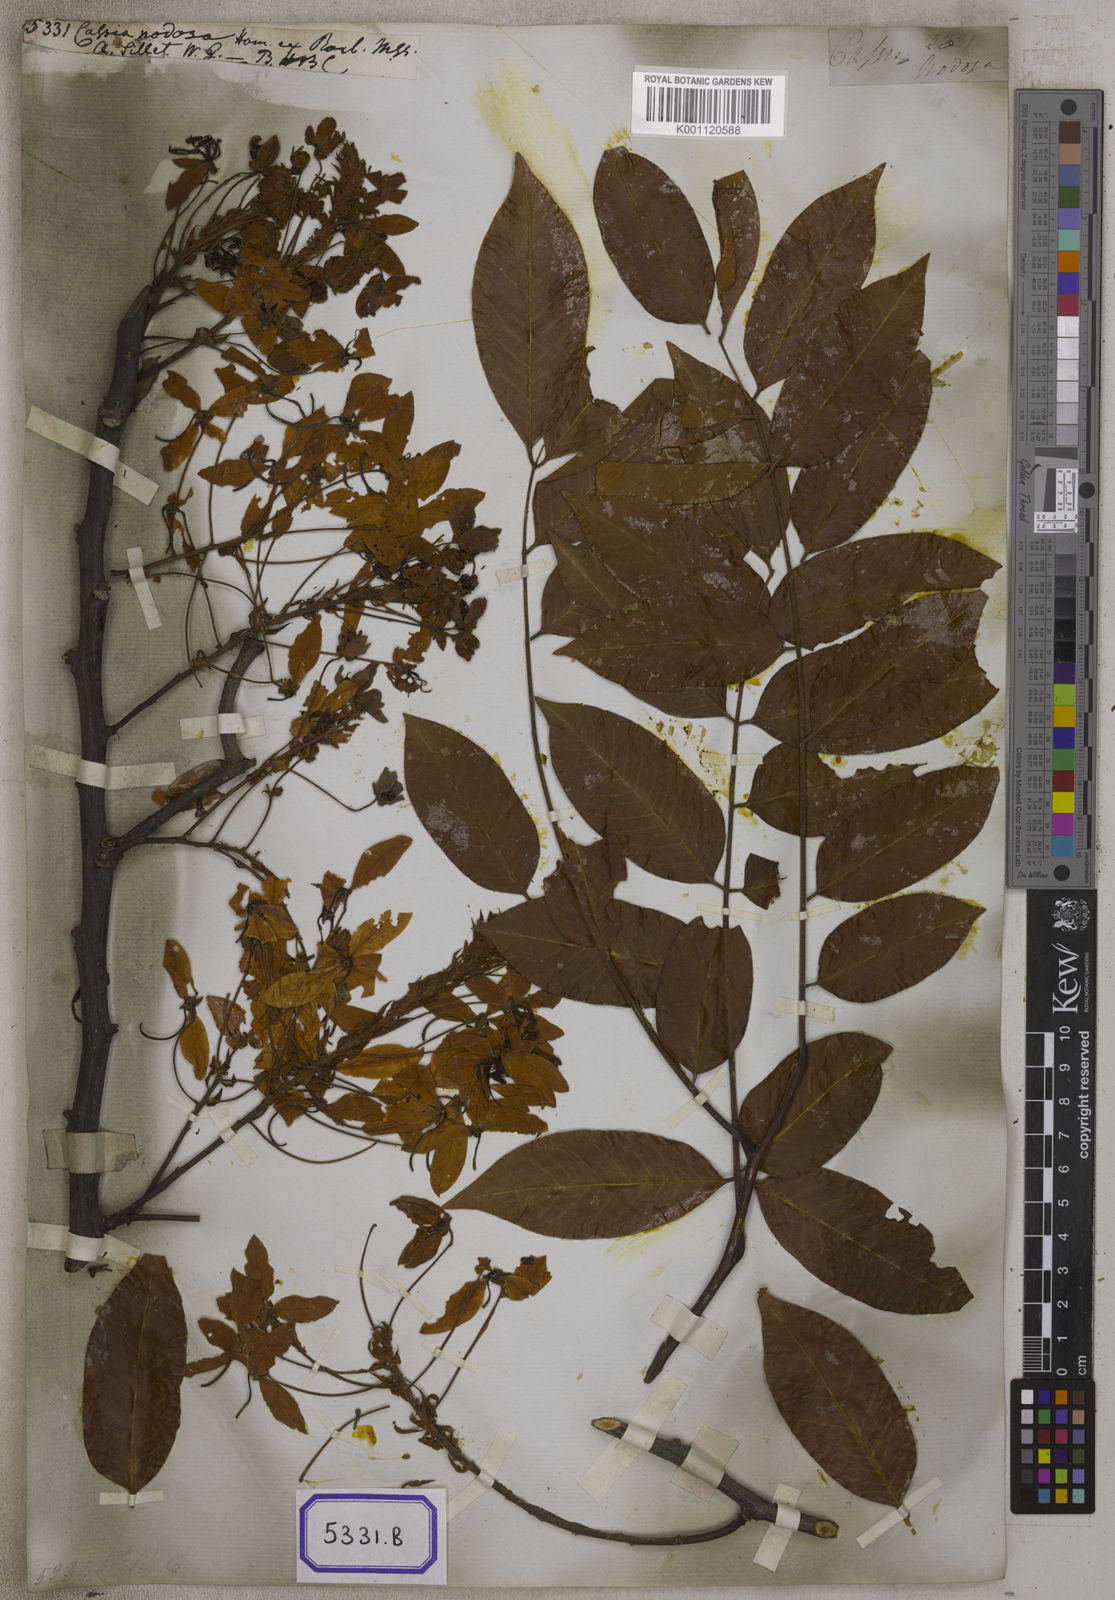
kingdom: Plantae
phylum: Tracheophyta
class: Magnoliopsida
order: Fabales
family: Fabaceae
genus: Cassia
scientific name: Cassia
